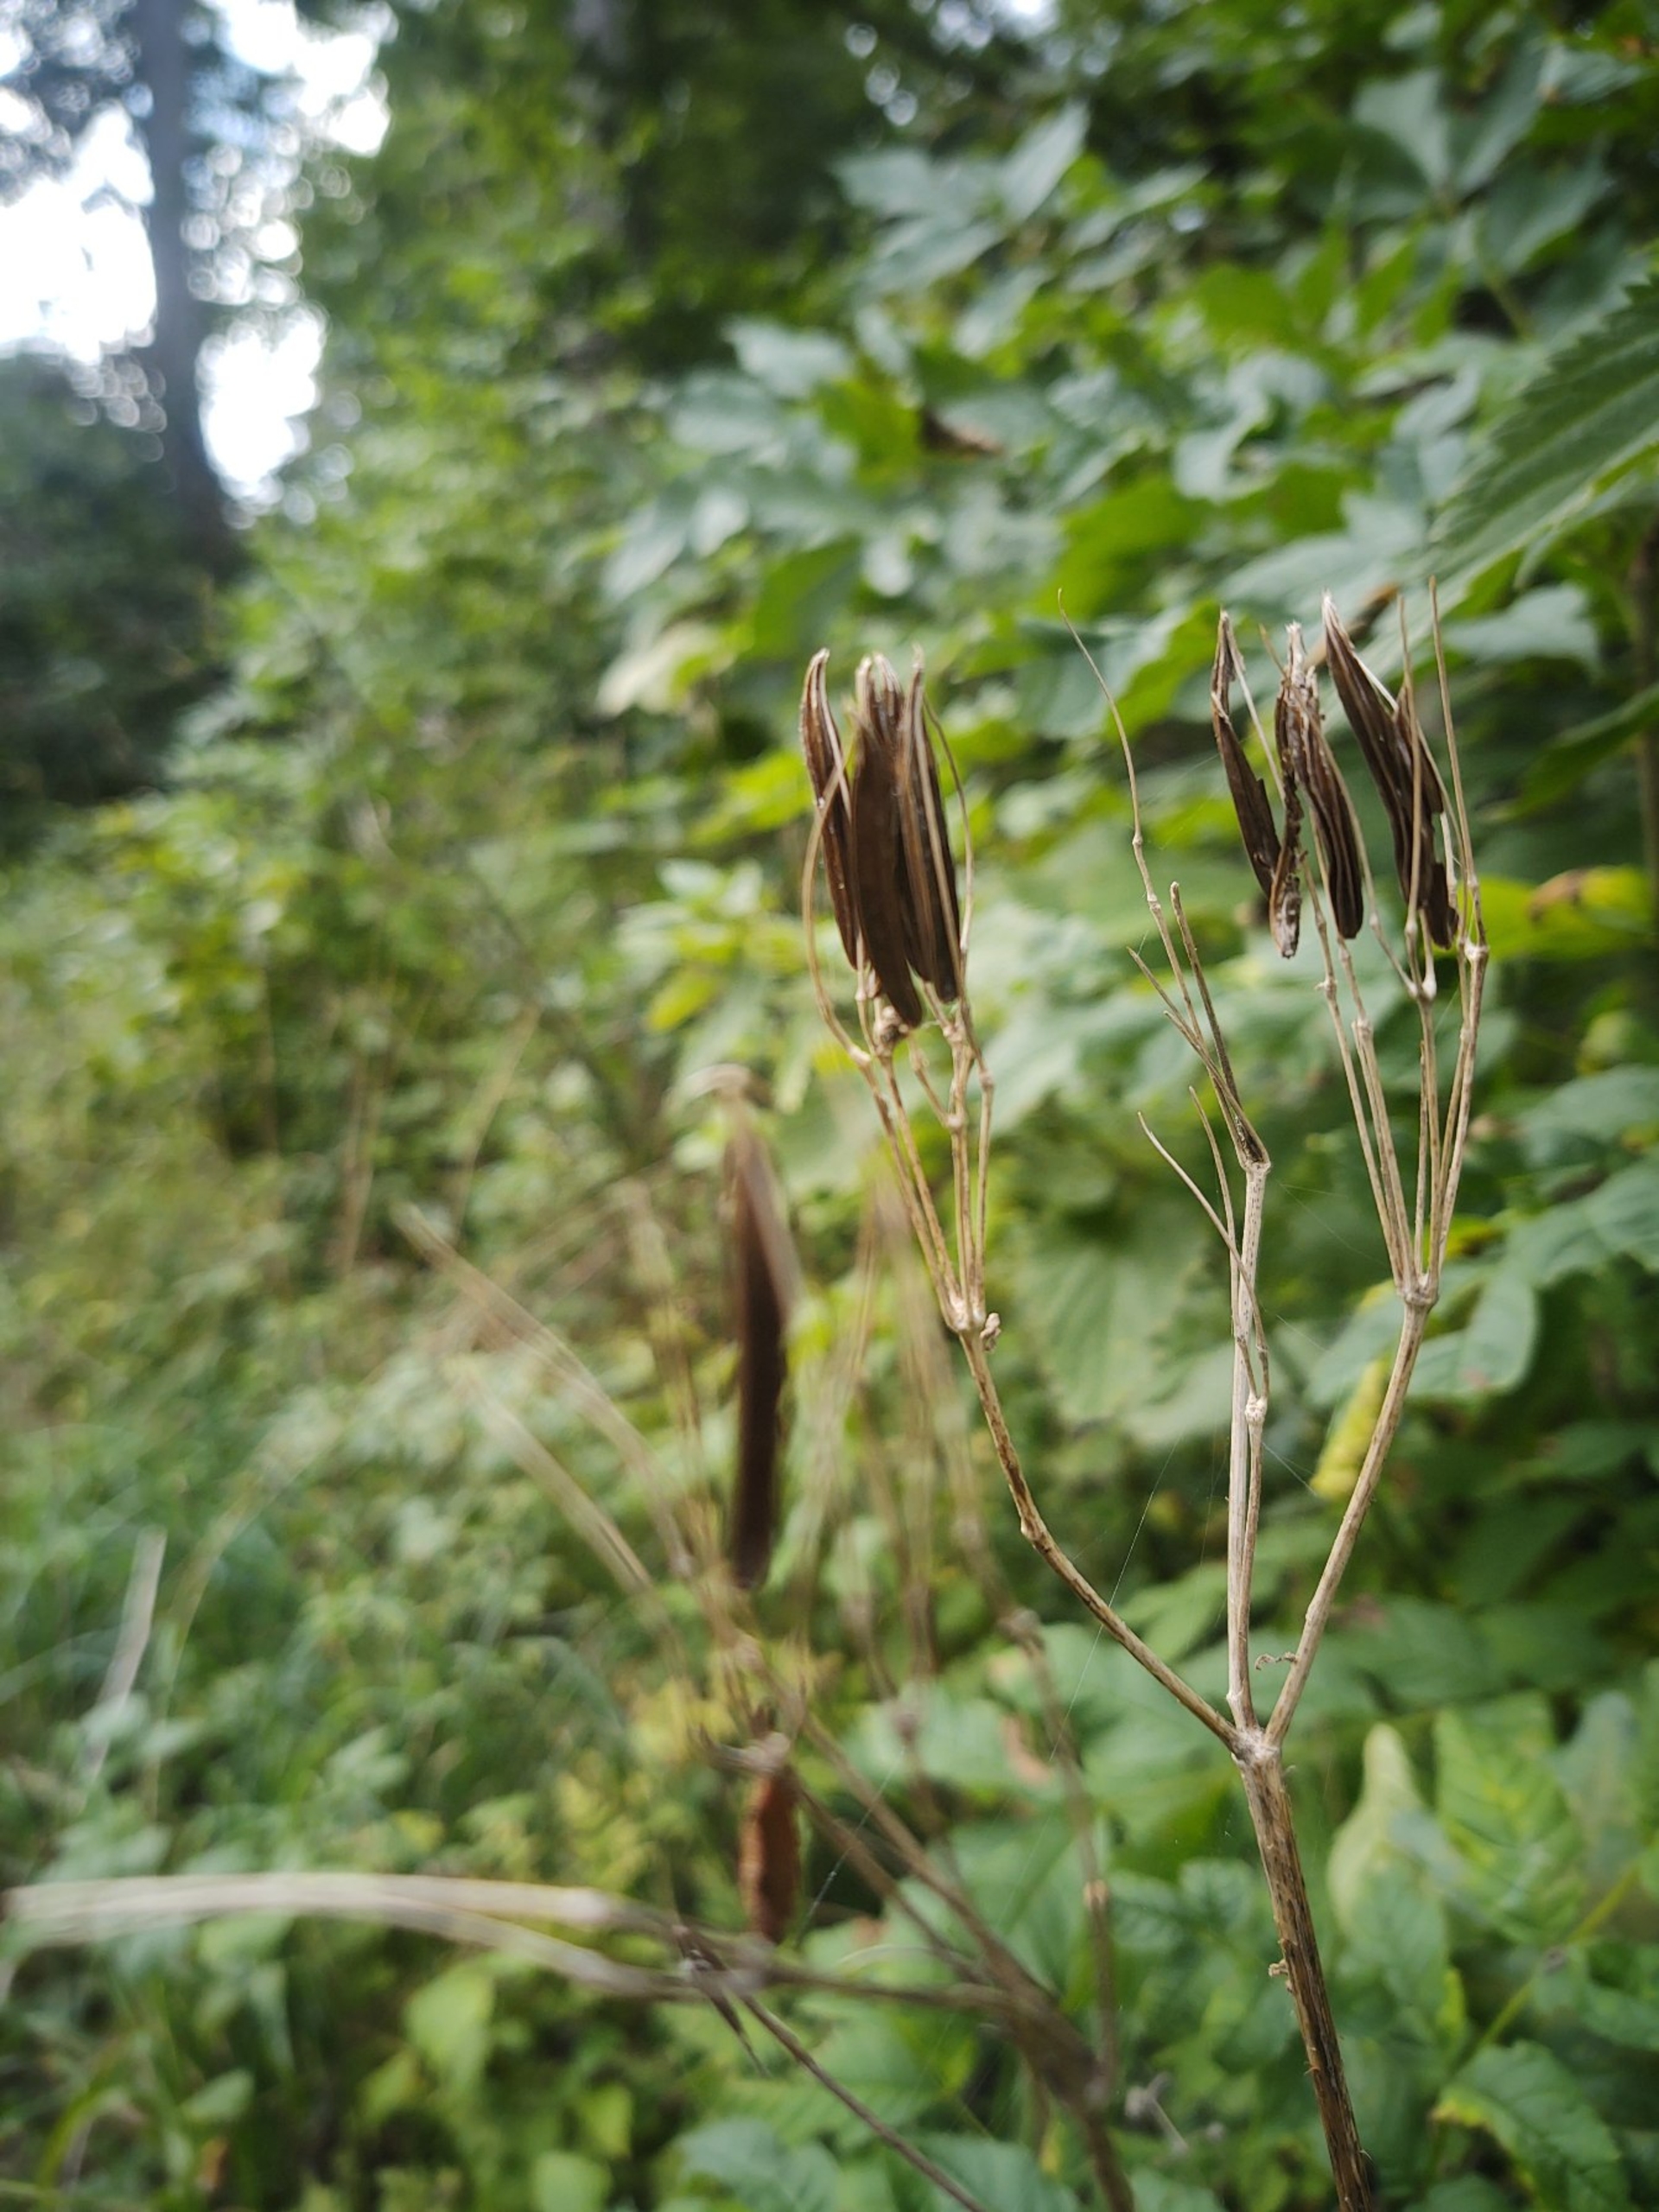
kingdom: Plantae
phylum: Tracheophyta
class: Magnoliopsida
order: Apiales
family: Apiaceae
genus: Myrrhis
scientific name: Myrrhis odorata
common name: Sødskærm
